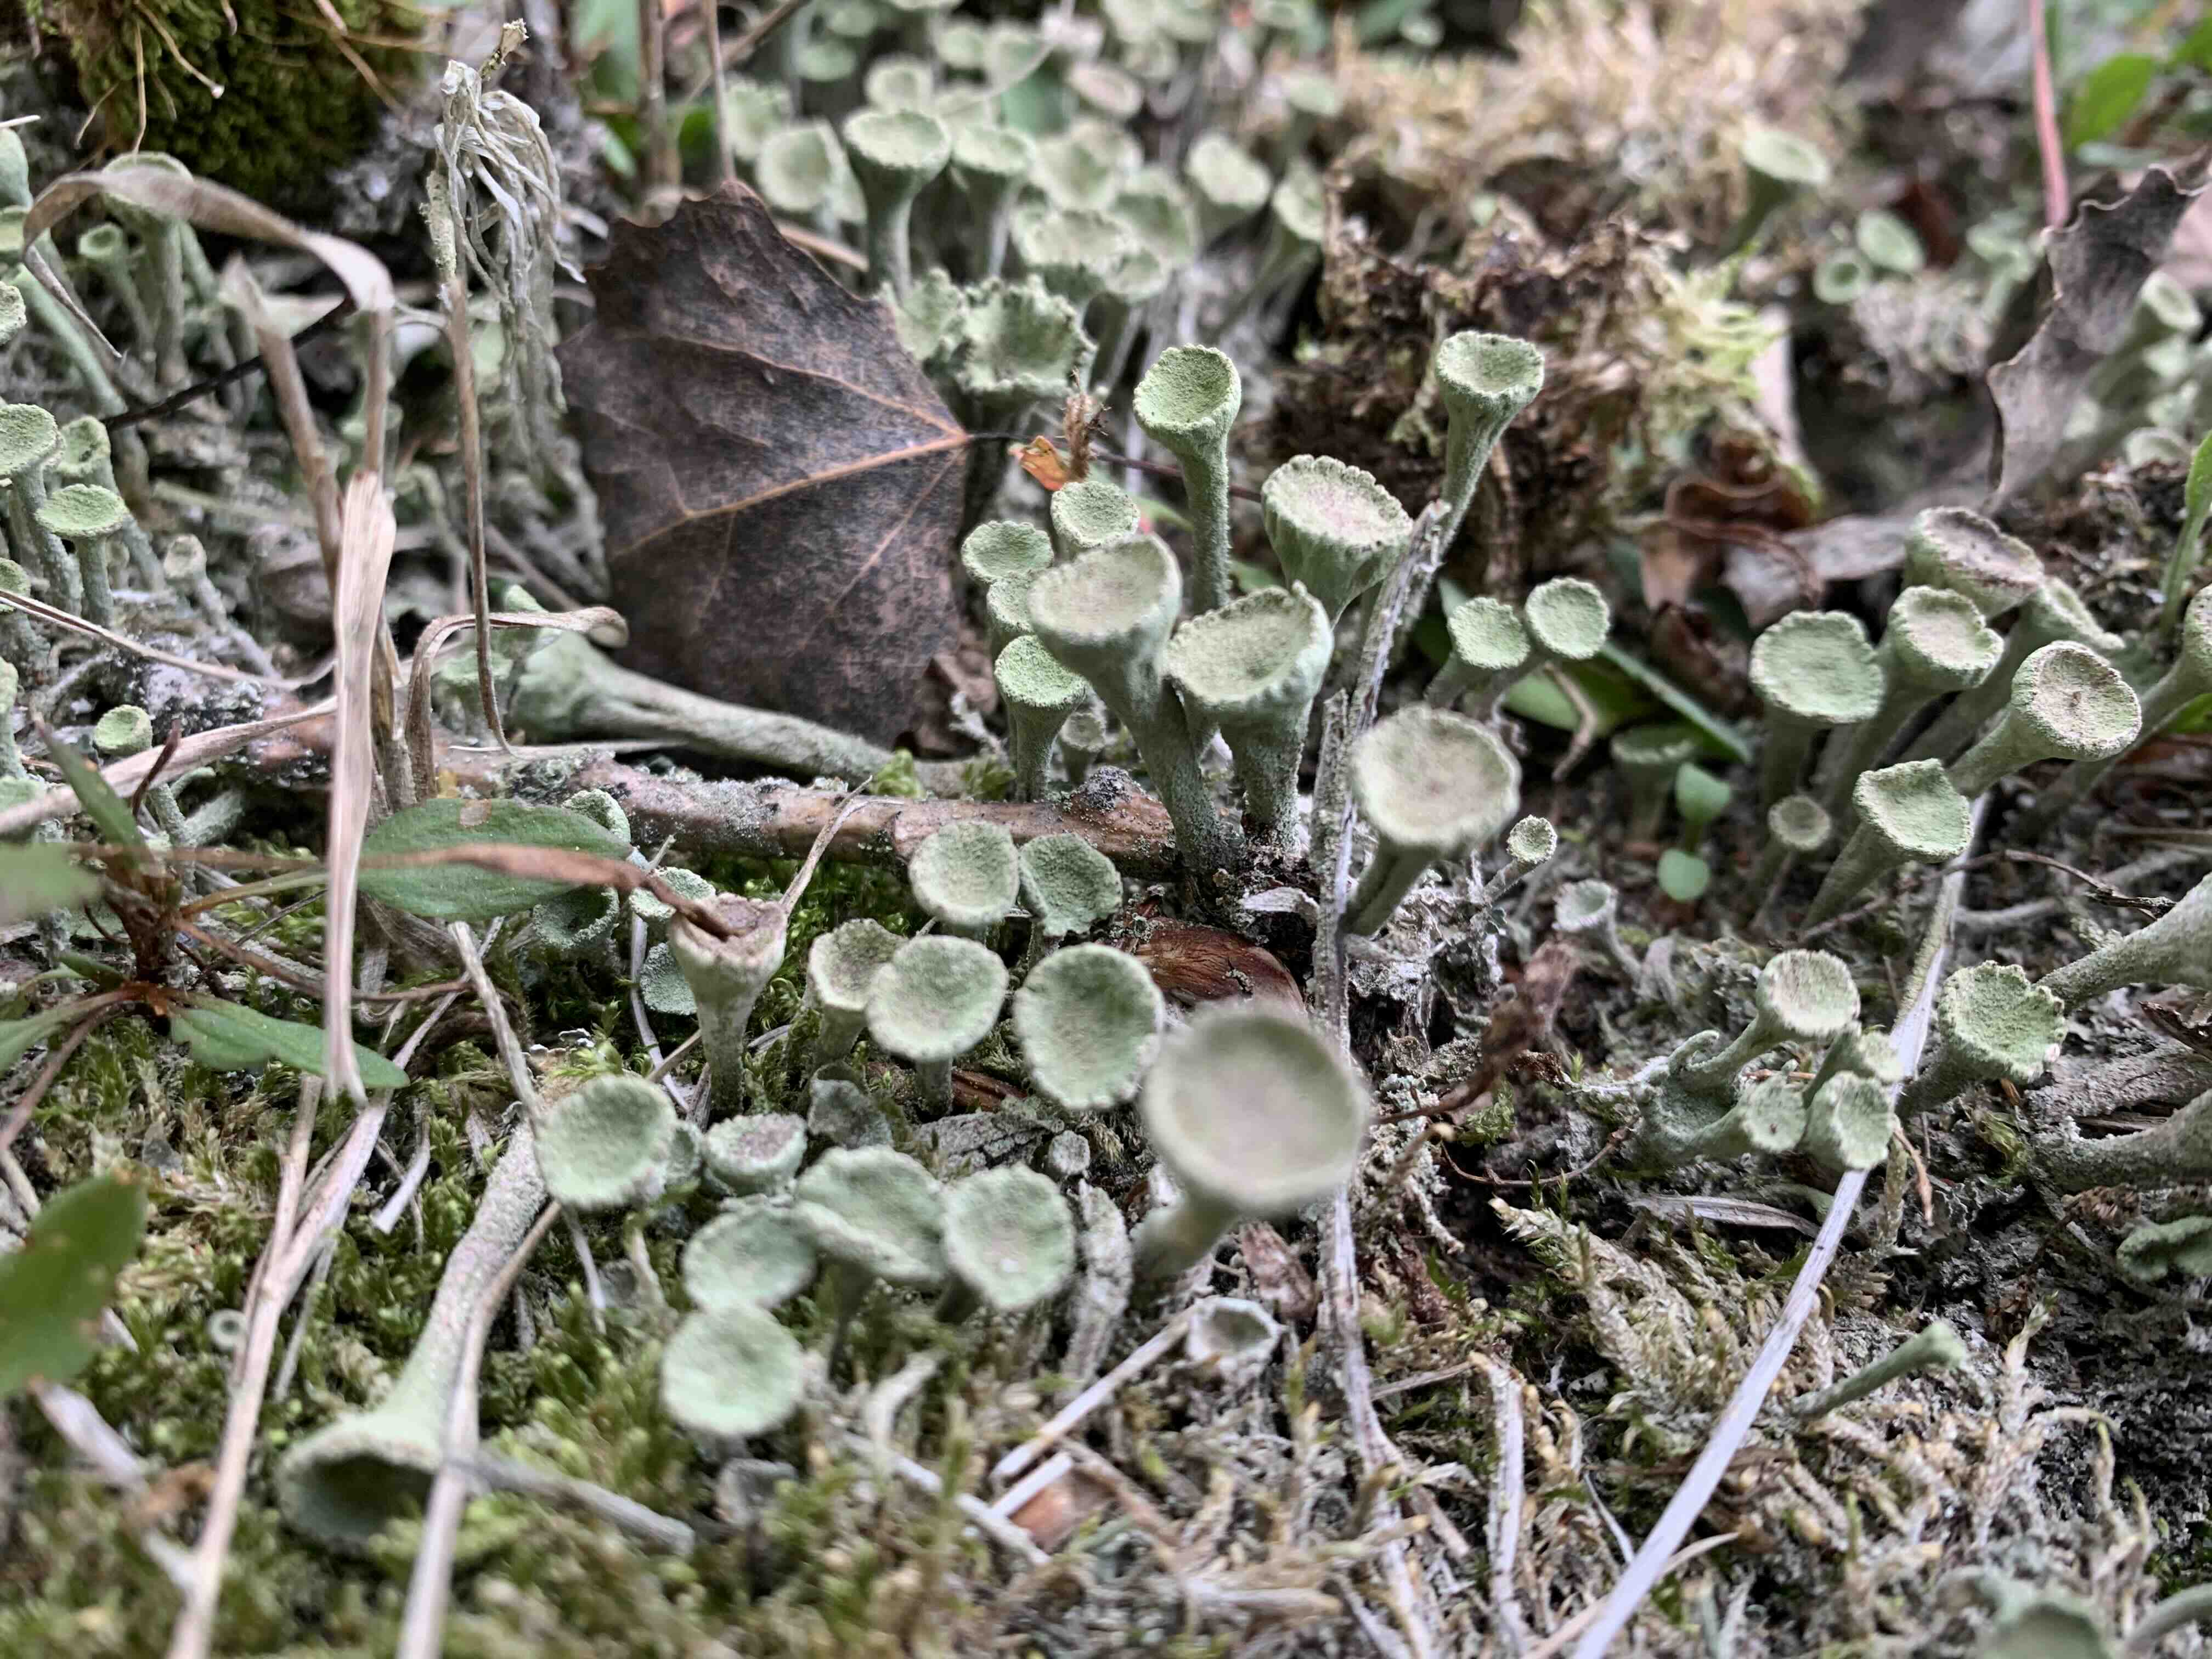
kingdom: Fungi
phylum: Ascomycota
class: Lecanoromycetes
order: Lecanorales
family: Cladoniaceae
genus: Cladonia
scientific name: Cladonia
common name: brungrøn bægerlav
